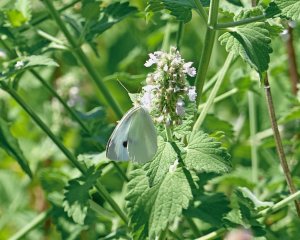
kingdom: Animalia
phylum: Arthropoda
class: Insecta
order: Lepidoptera
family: Pieridae
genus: Pieris
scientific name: Pieris rapae
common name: Cabbage White
